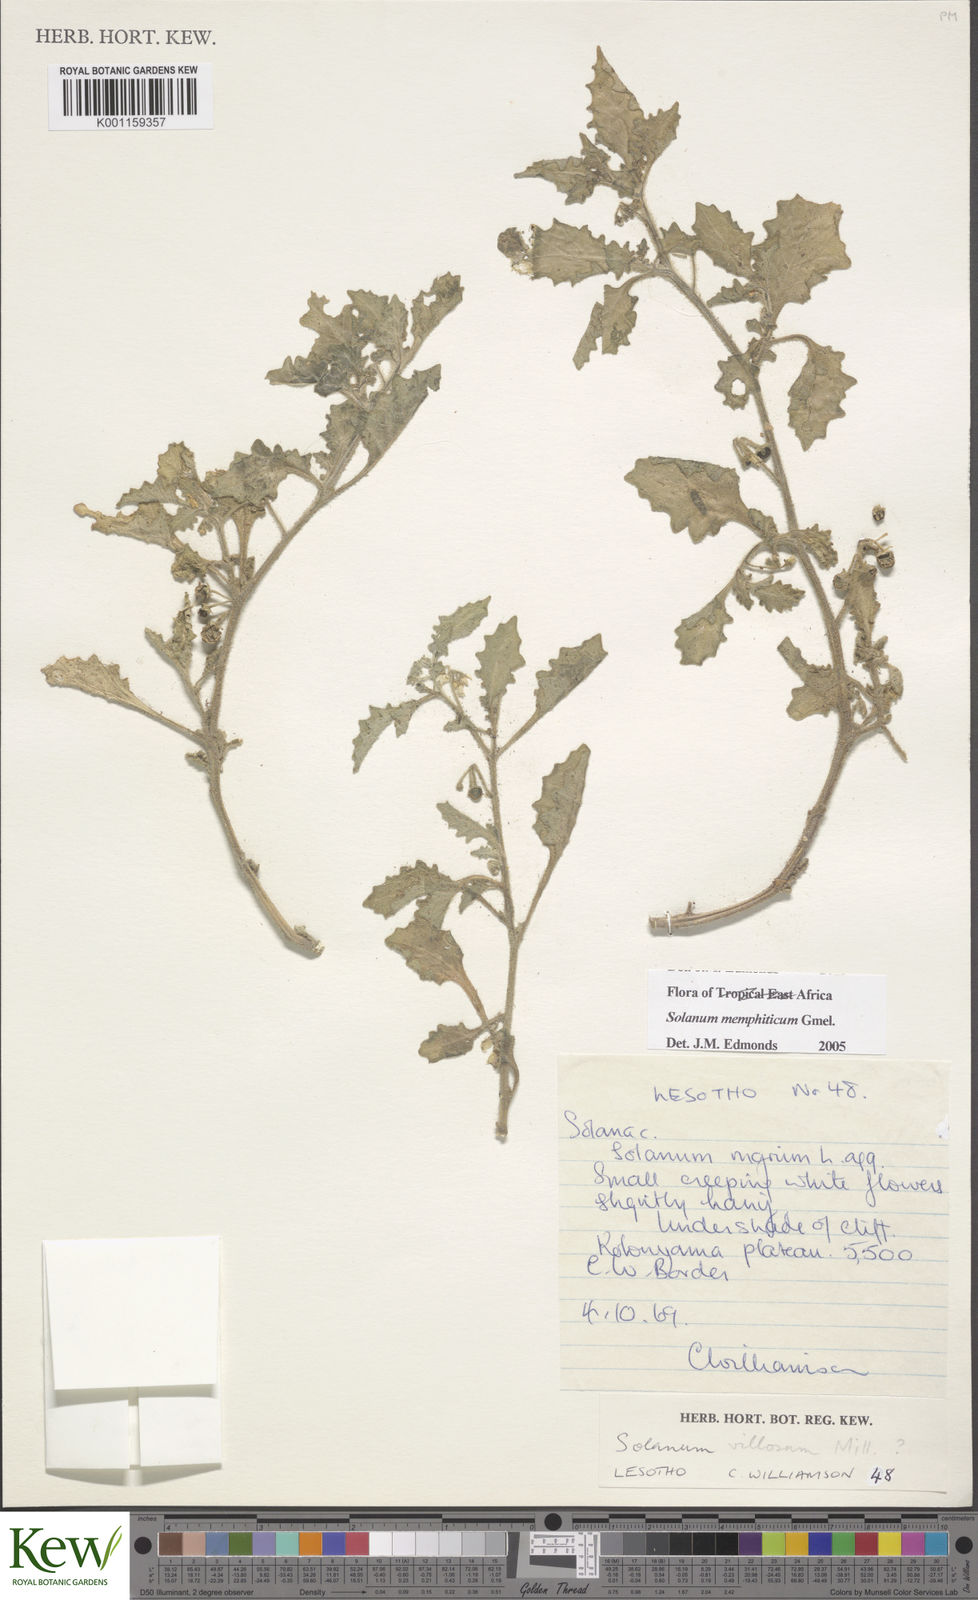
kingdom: Plantae
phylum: Tracheophyta
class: Magnoliopsida
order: Solanales
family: Solanaceae
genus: Solanum
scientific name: Solanum retroflexum
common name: Wonderberry
